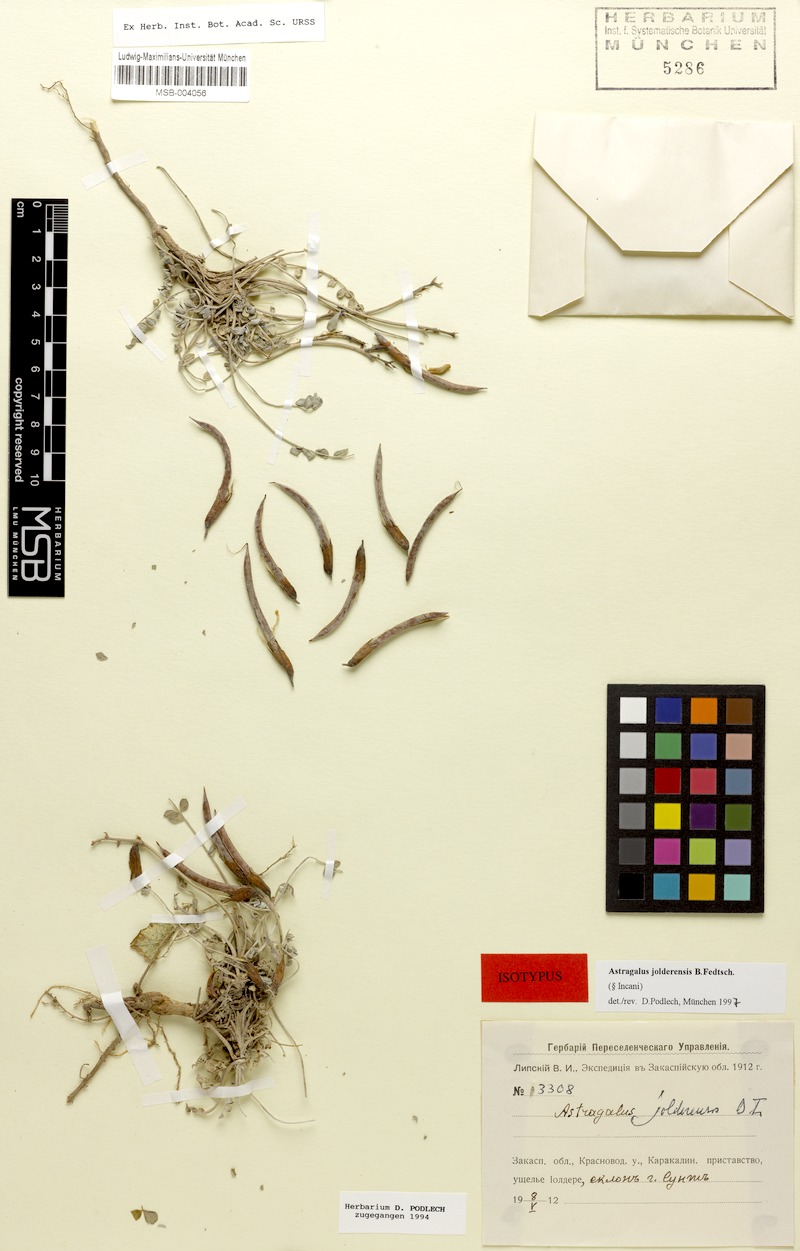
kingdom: Plantae
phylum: Tracheophyta
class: Magnoliopsida
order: Fabales
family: Fabaceae
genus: Astragalus
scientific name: Astragalus jolderensis
